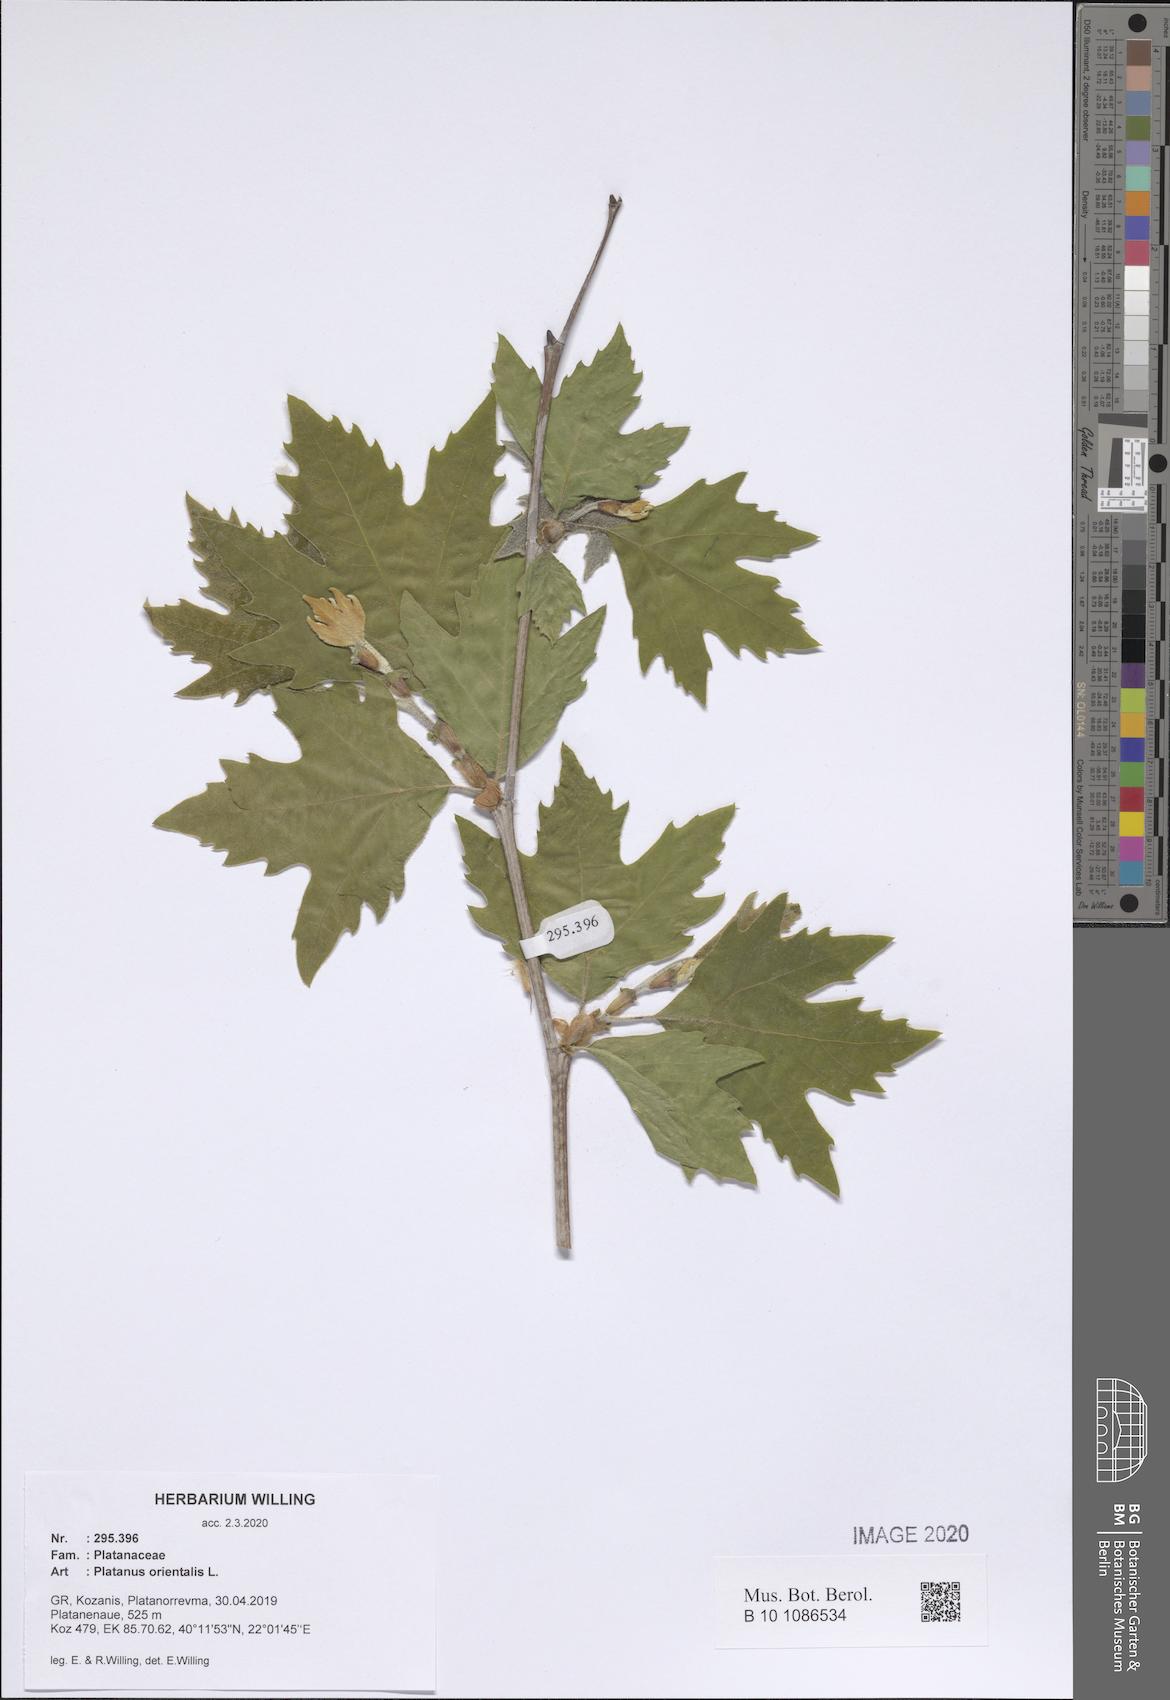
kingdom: Plantae
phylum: Tracheophyta
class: Magnoliopsida
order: Proteales
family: Platanaceae
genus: Platanus
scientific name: Platanus orientalis
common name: Oriental plane
